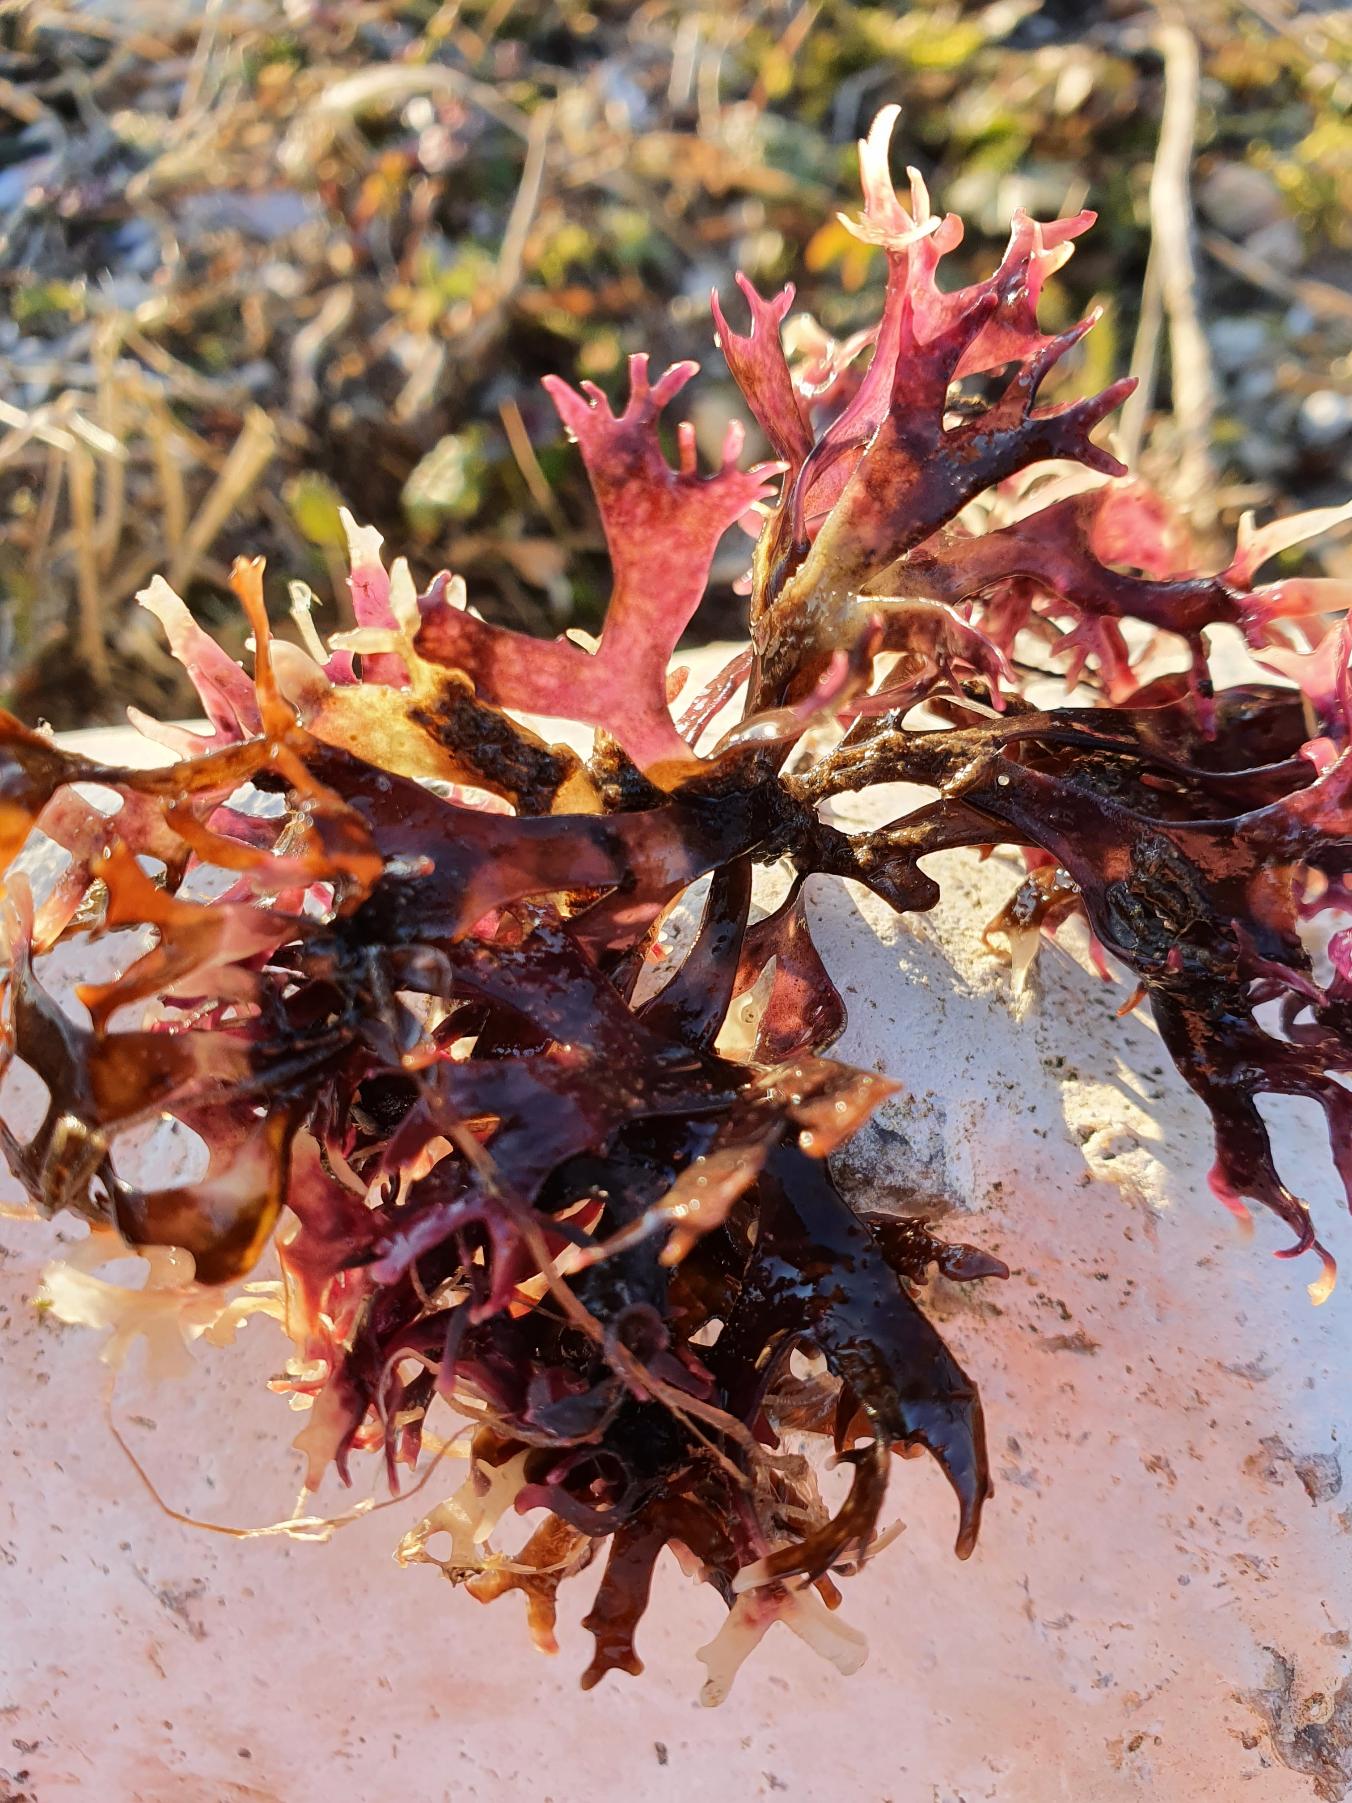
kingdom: Plantae
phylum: Rhodophyta
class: Florideophyceae
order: Gigartinales
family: Gigartinaceae
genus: Chondrus
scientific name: Chondrus crispus
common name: Carrageentang
